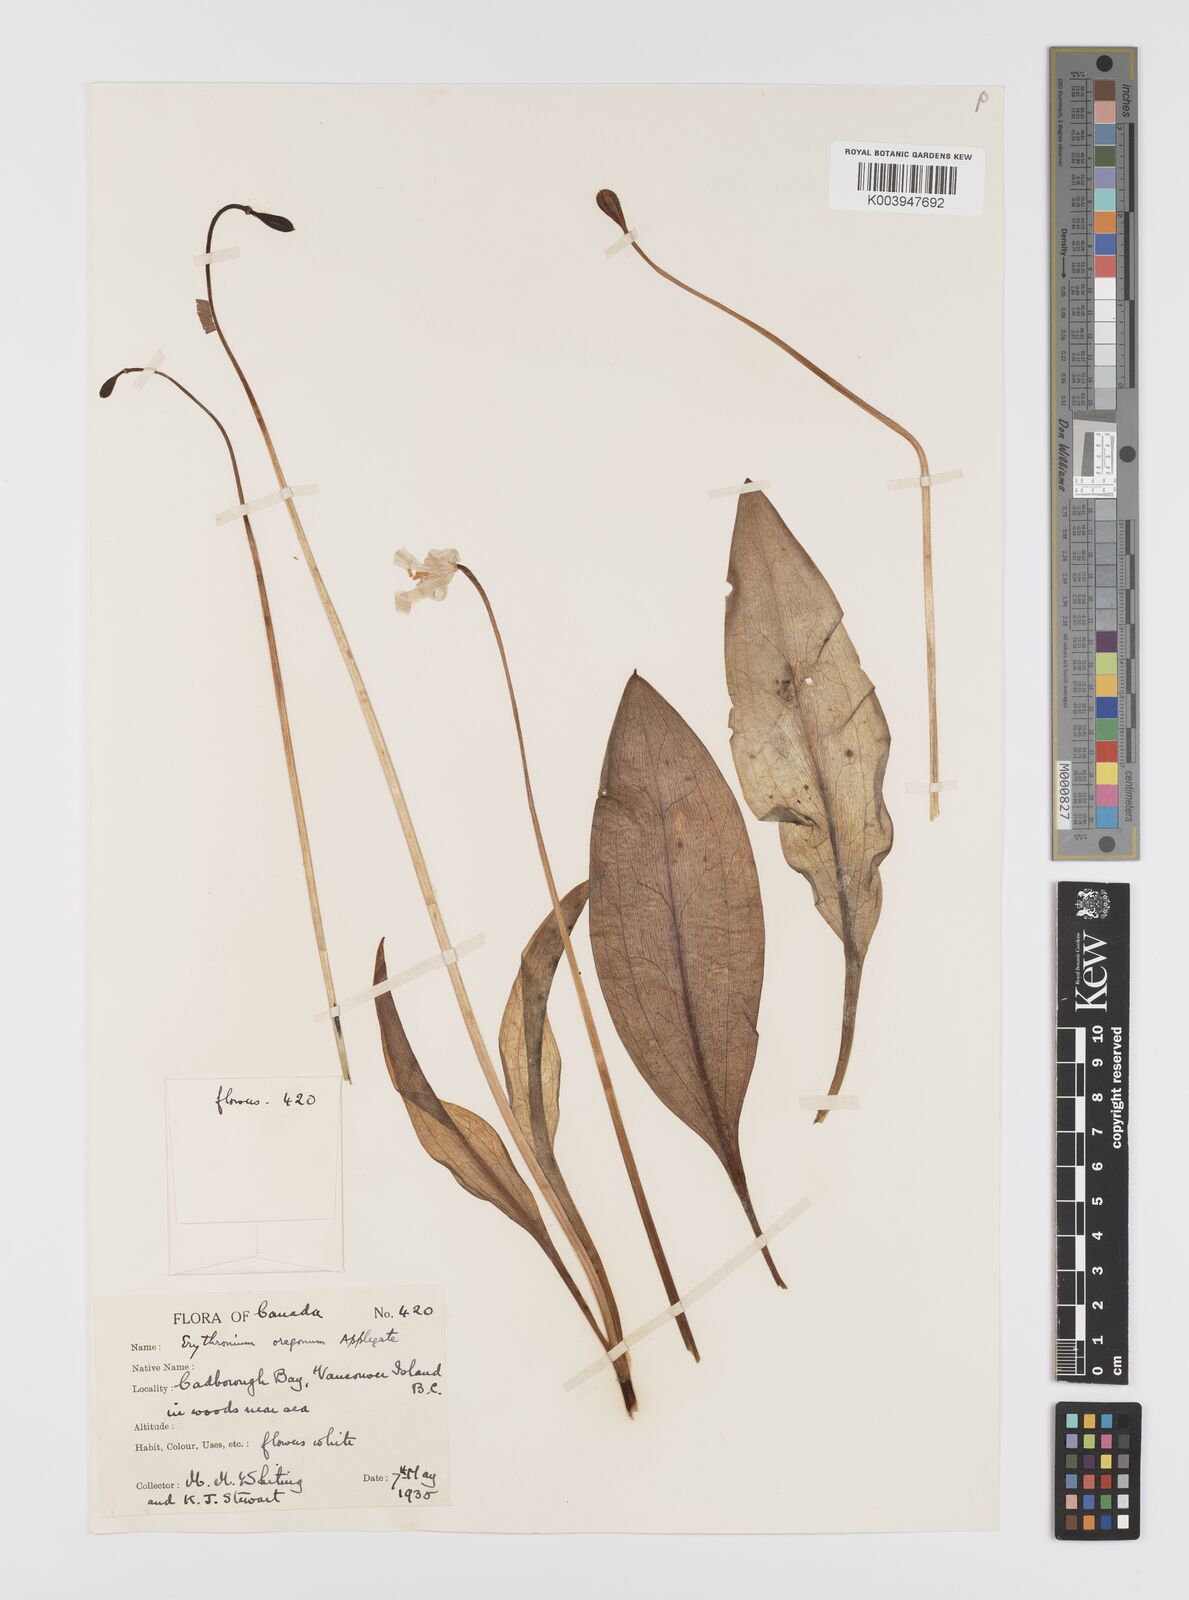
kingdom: Plantae
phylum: Tracheophyta
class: Liliopsida
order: Liliales
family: Liliaceae
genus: Erythronium
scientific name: Erythronium oregonum
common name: Giant adder's-tongue
